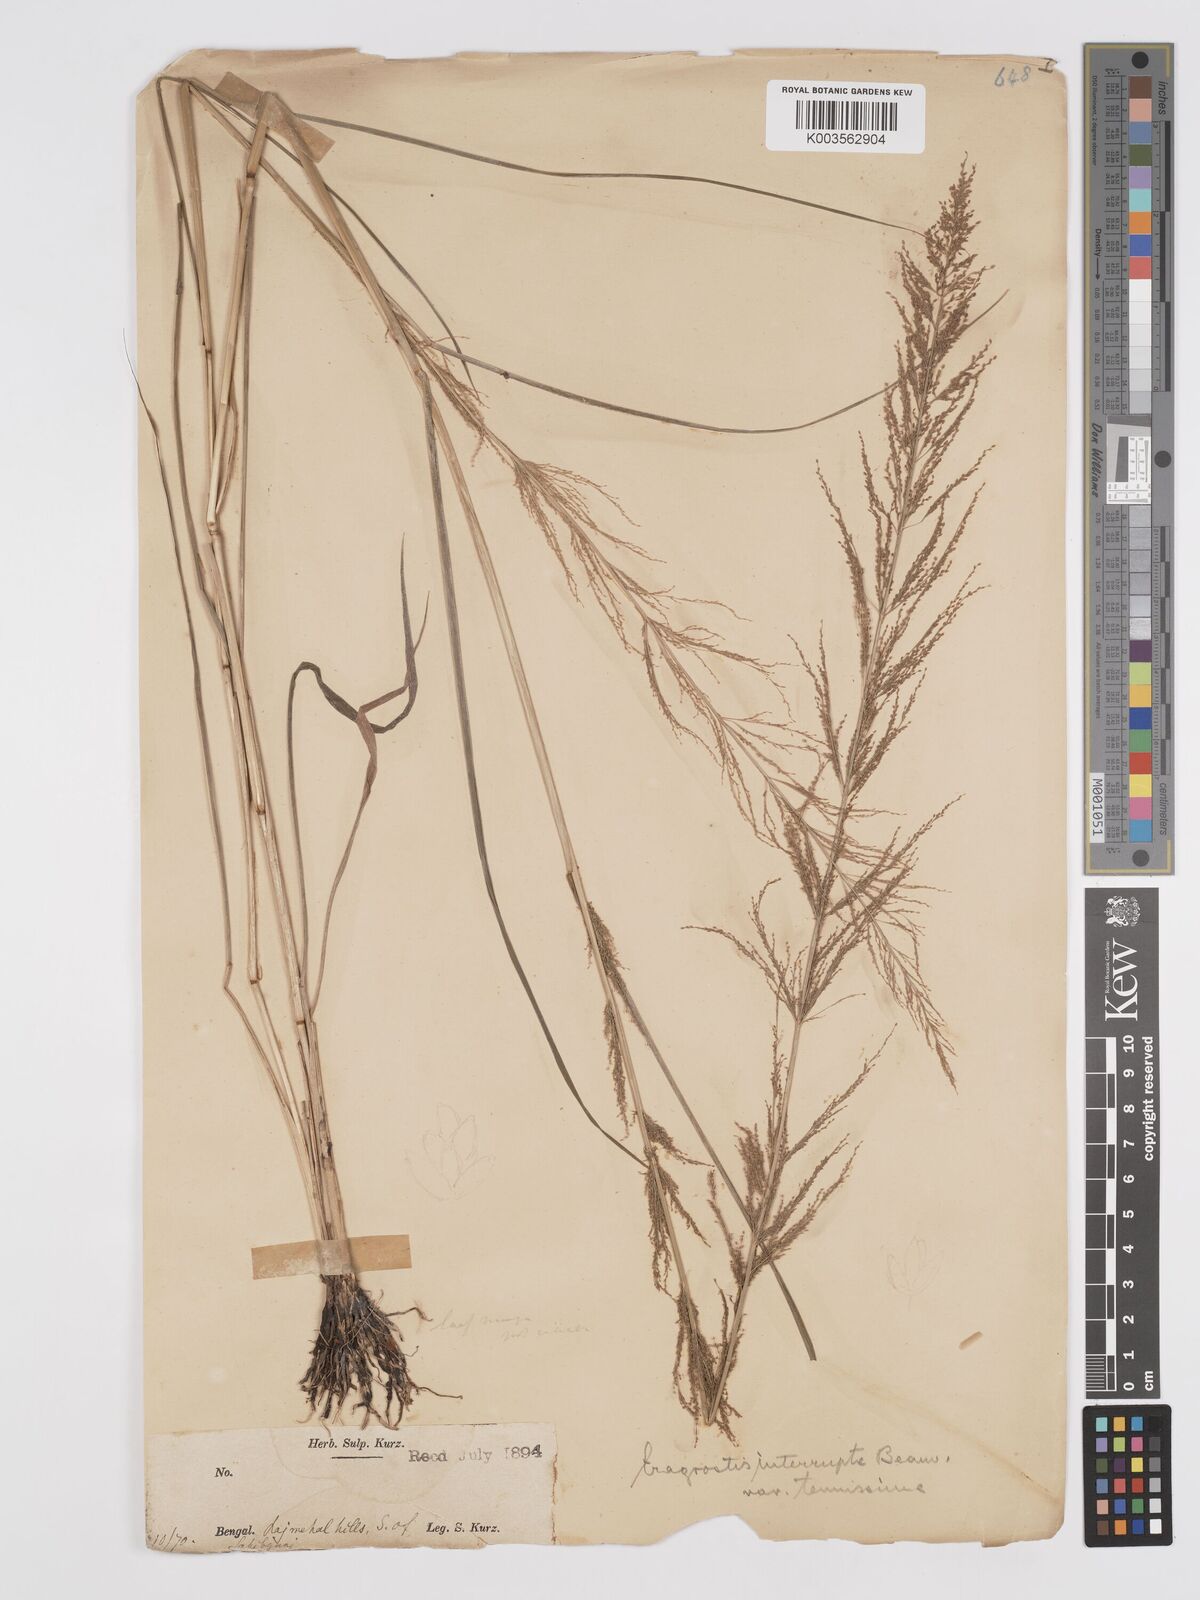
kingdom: Plantae
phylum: Tracheophyta
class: Liliopsida
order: Poales
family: Poaceae
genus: Eragrostis
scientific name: Eragrostis japonica
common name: Pond lovegrass
